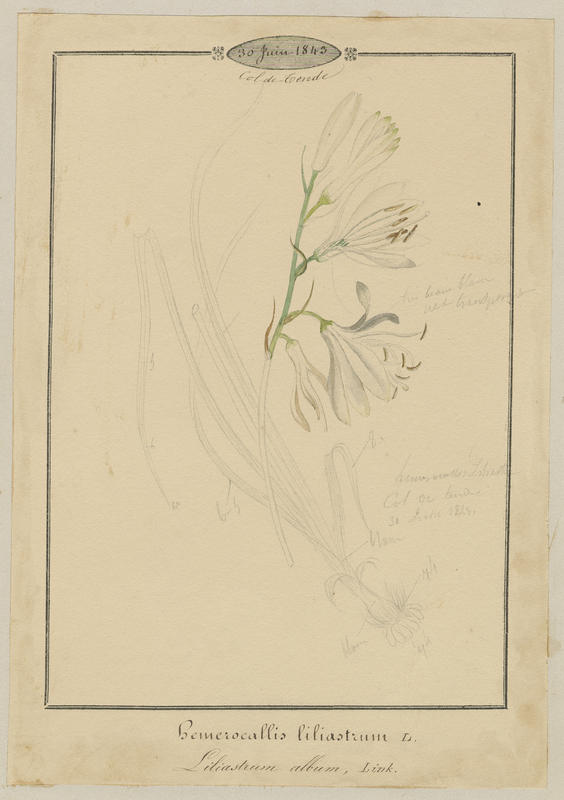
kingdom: Plantae
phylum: Tracheophyta
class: Liliopsida
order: Asparagales
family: Asparagaceae
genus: Paradisea
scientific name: Paradisea liliastrum
